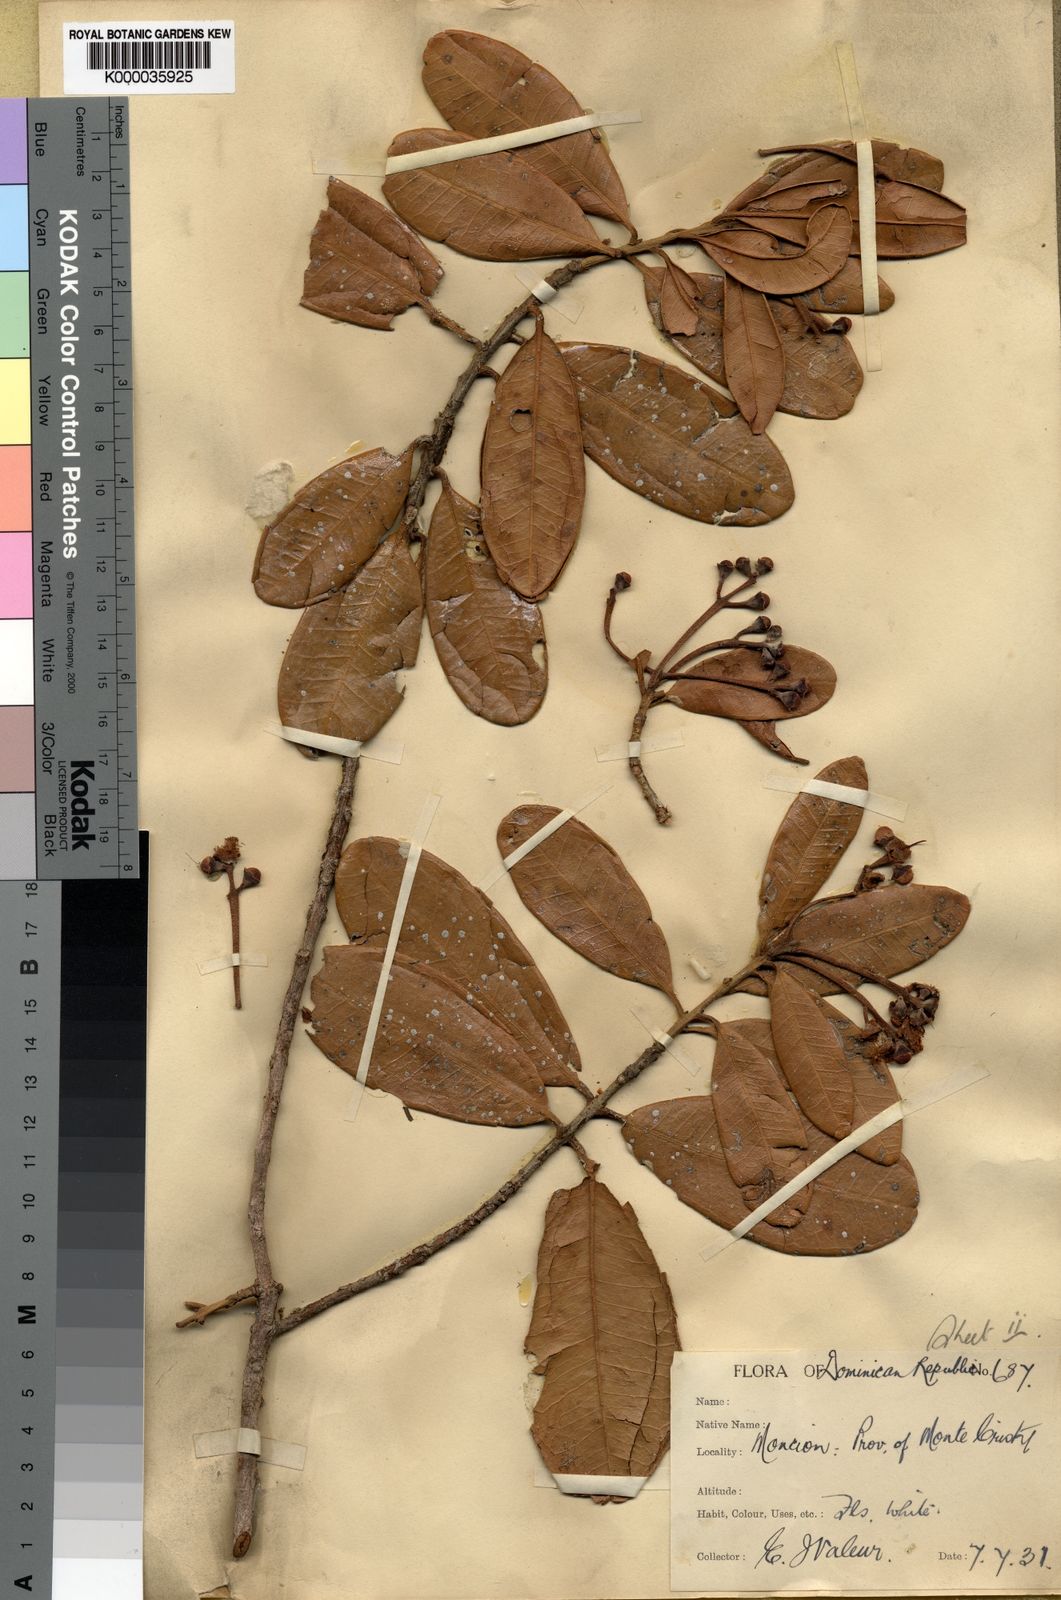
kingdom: Plantae
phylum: Tracheophyta
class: Magnoliopsida
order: Myrtales
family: Myrtaceae
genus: Pimenta
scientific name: Pimenta racemosa
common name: Bay rum tree
